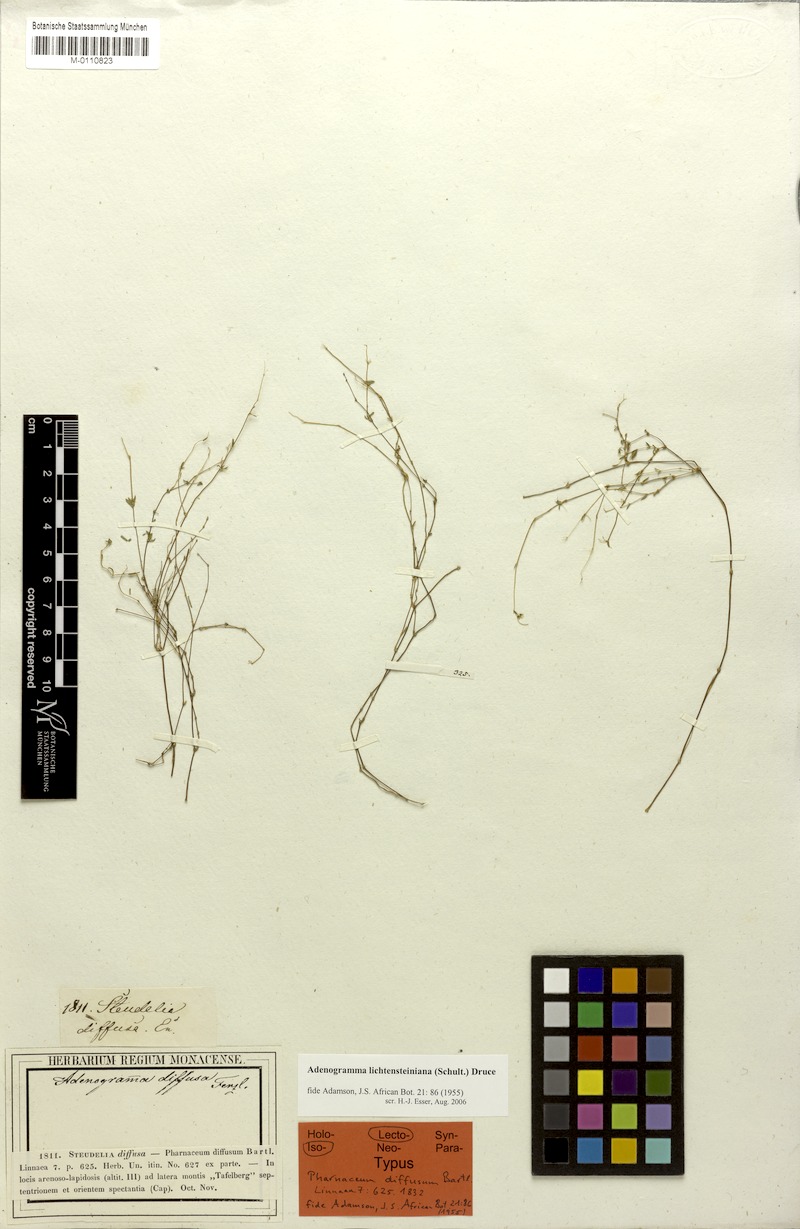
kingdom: Plantae
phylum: Tracheophyta
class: Magnoliopsida
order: Caryophyllales
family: Molluginaceae
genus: Adenogramma
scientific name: Adenogramma lichtensteiniana
